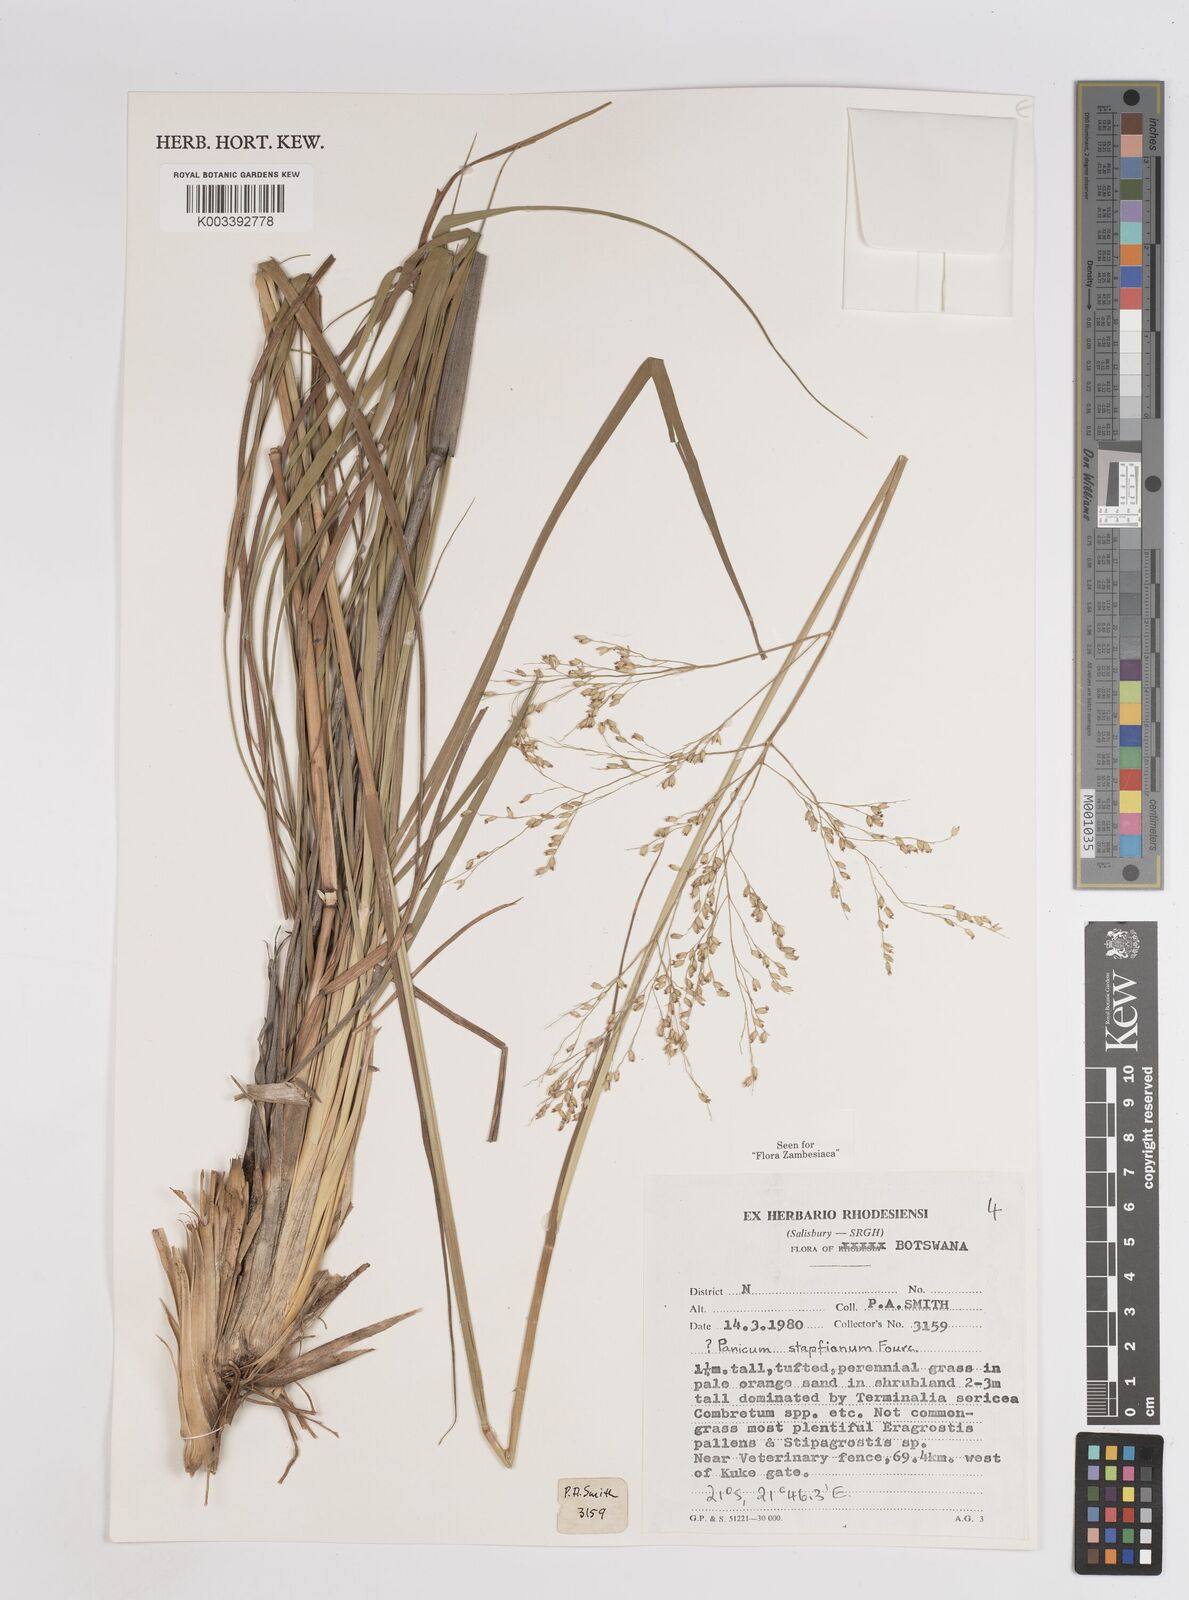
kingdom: Plantae
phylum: Tracheophyta
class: Liliopsida
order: Poales
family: Poaceae
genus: Panicum
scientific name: Panicum kalaharense
